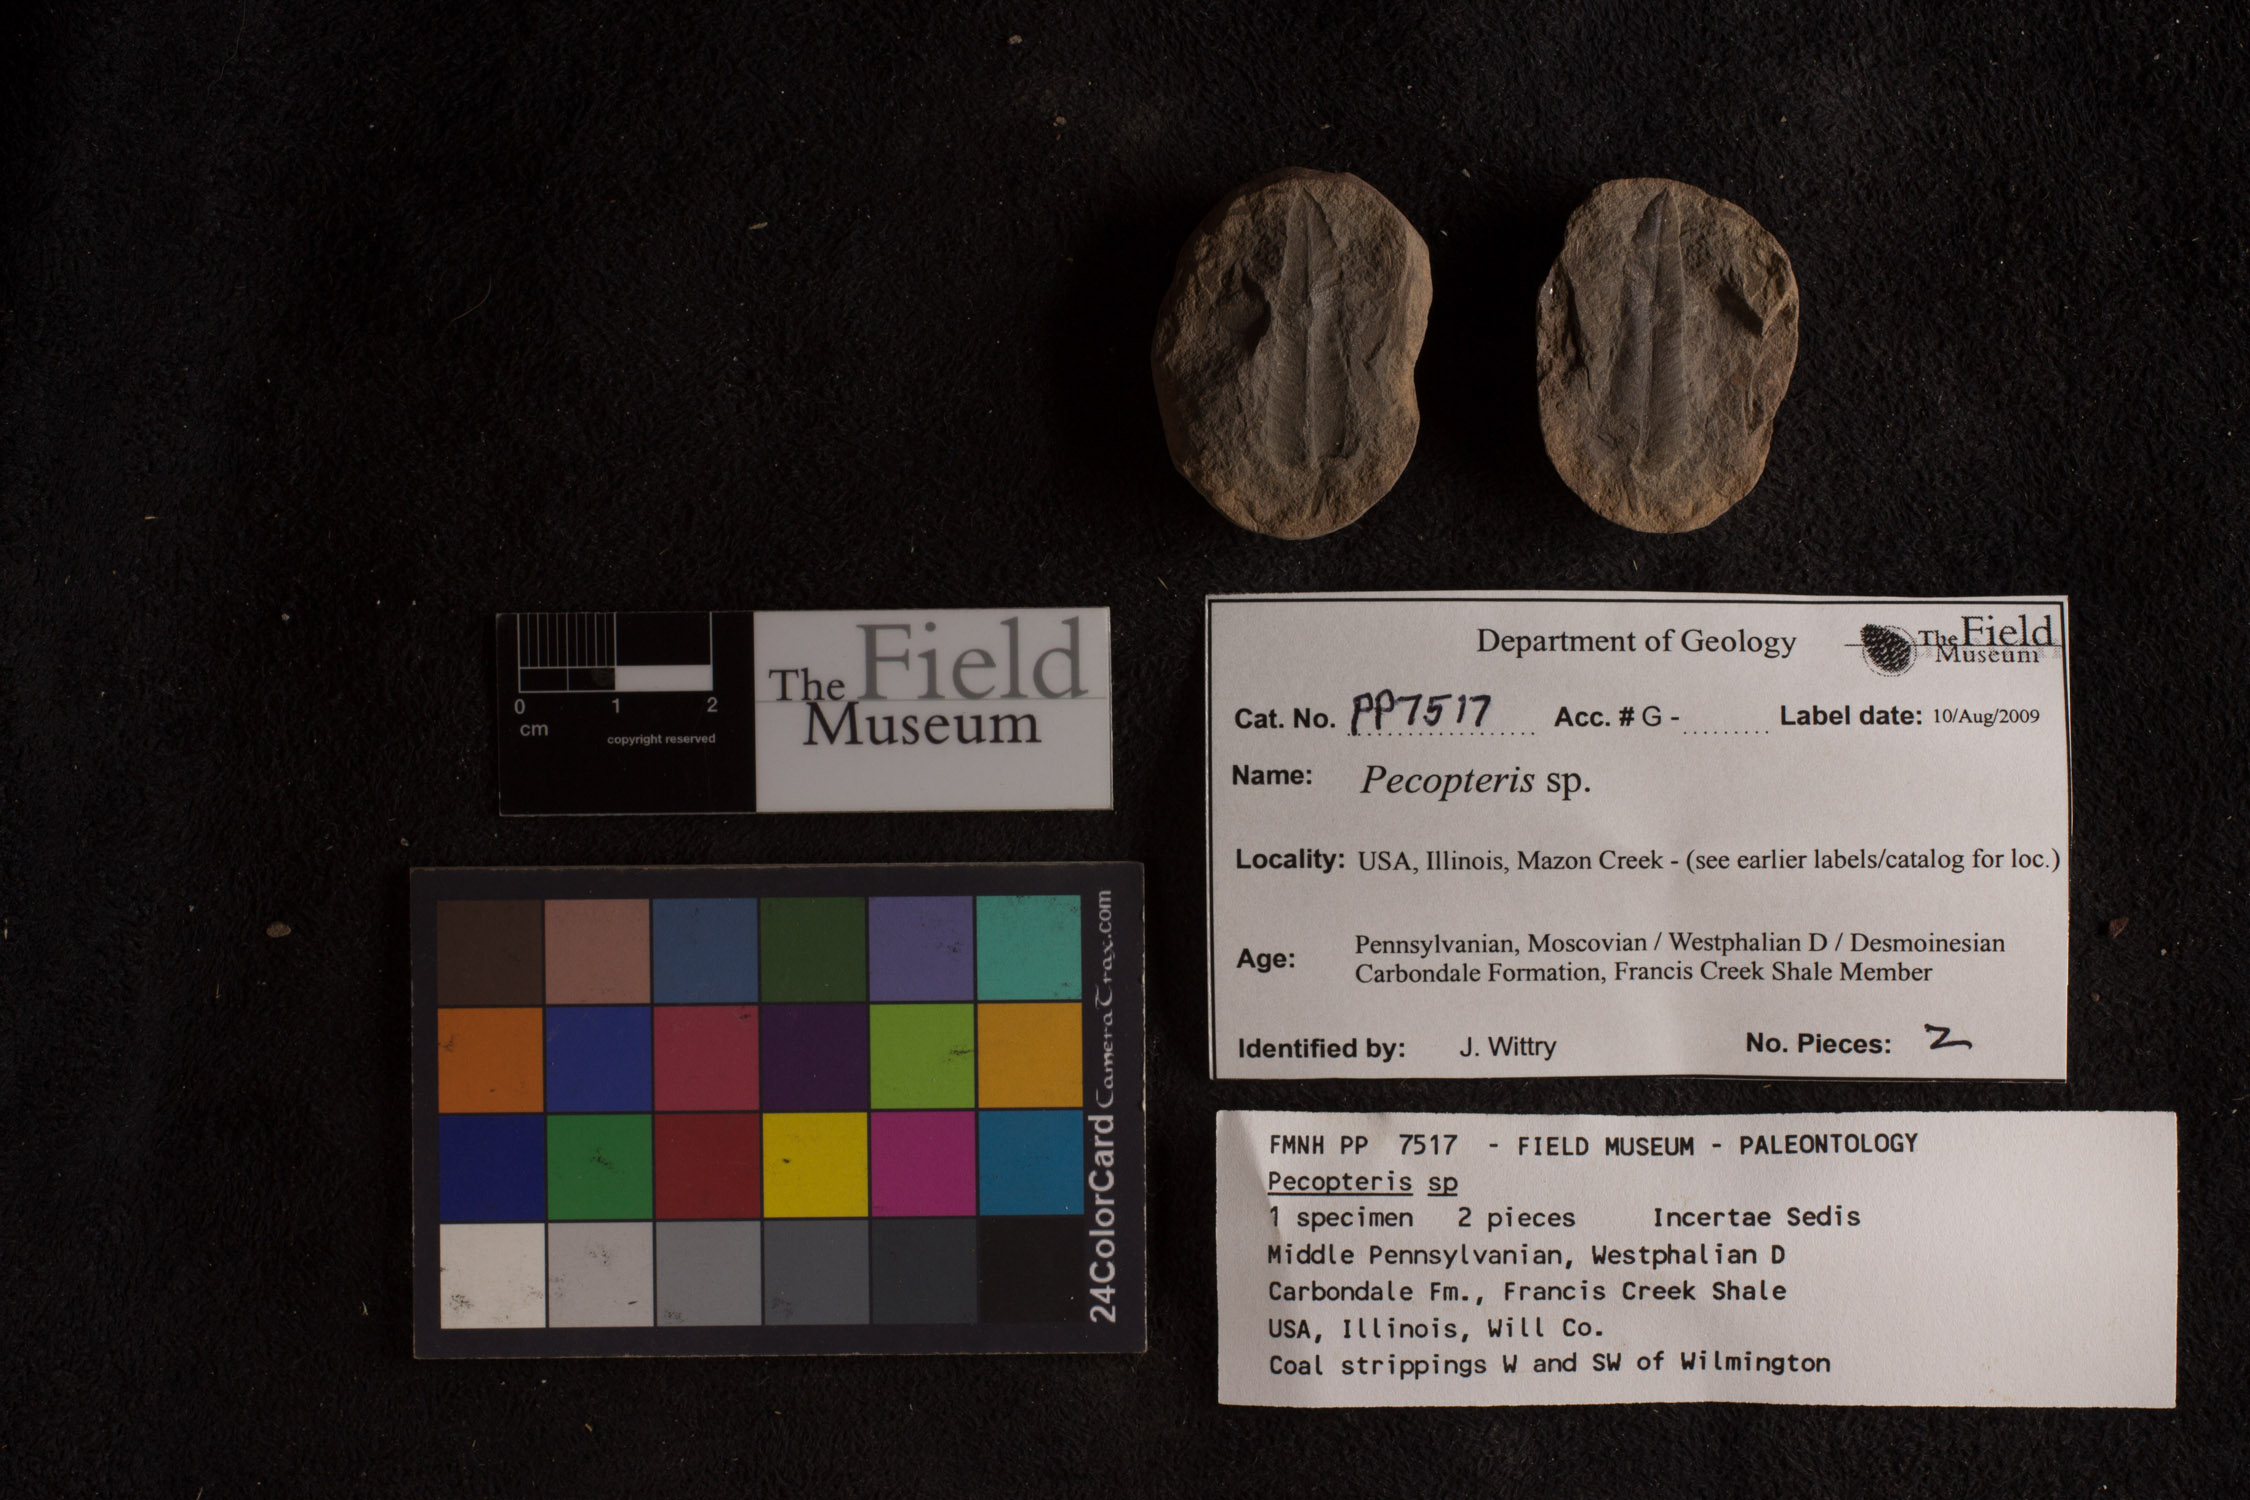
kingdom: Plantae
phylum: Tracheophyta
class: Polypodiopsida
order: Marattiales
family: Asterothecaceae
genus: Pecopteris
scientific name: Pecopteris
